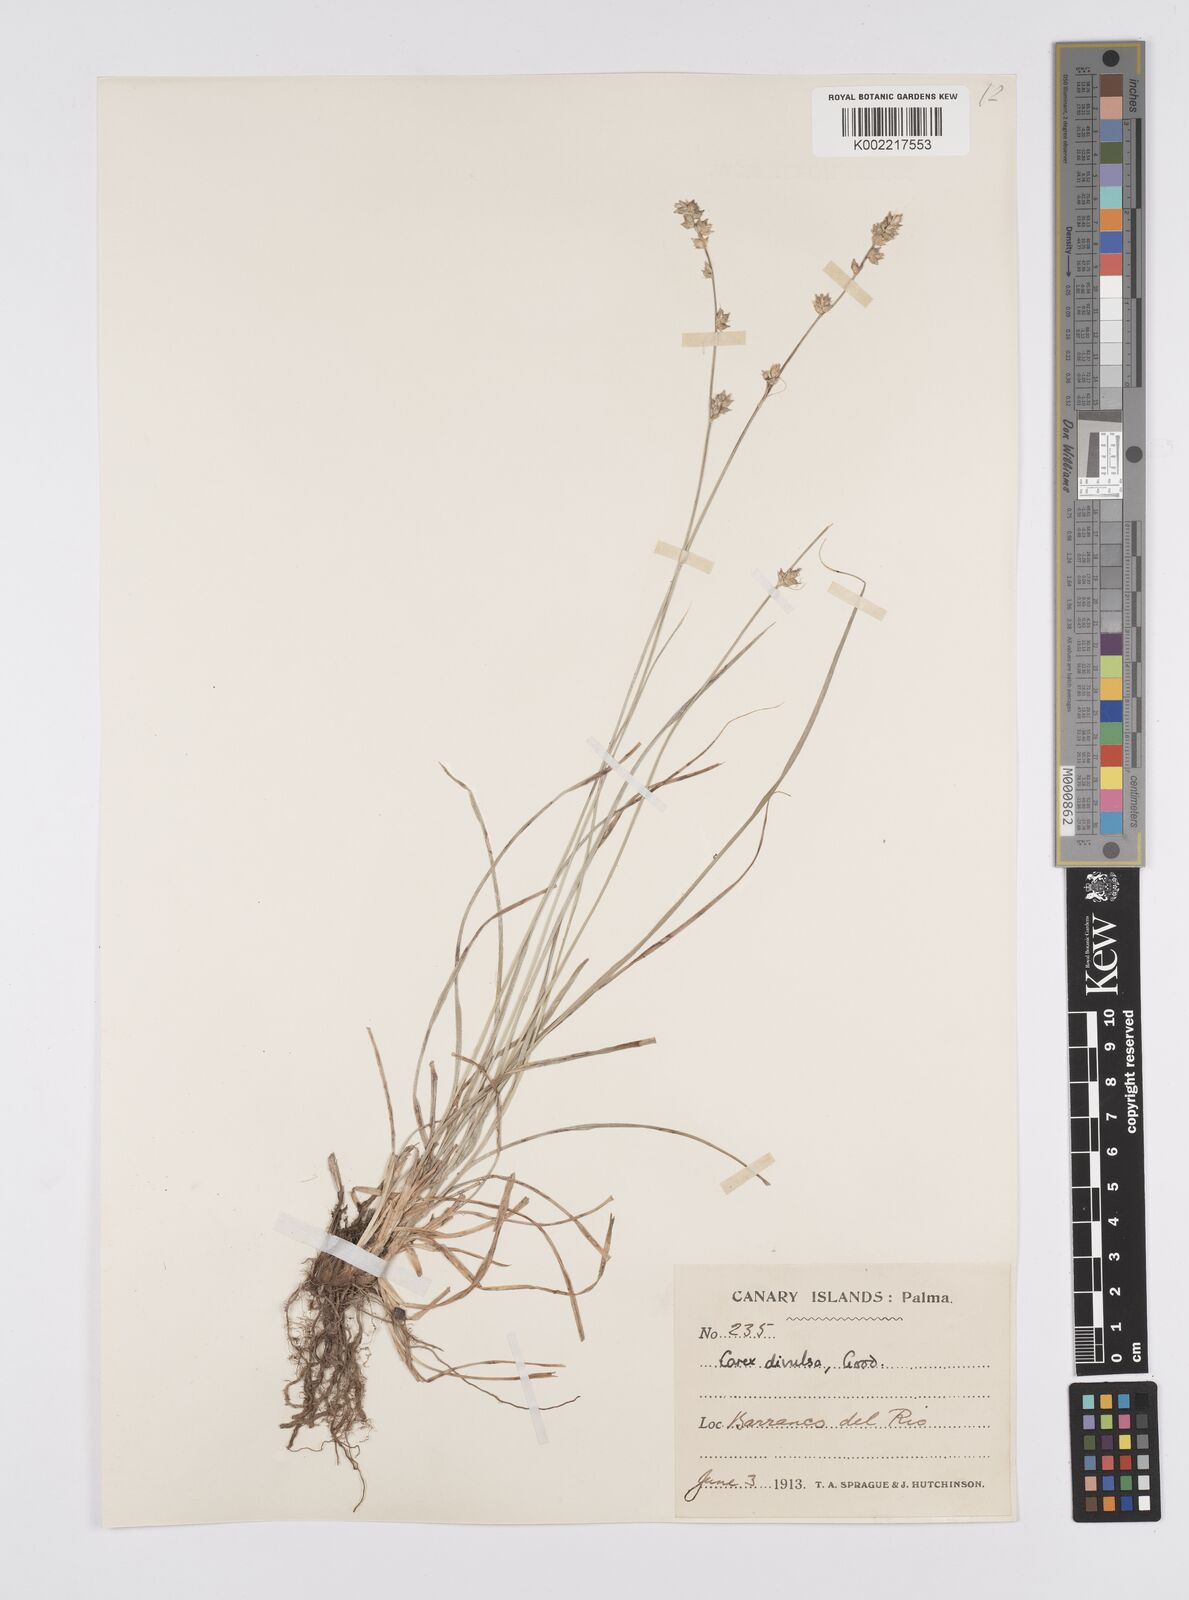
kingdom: Plantae
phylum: Tracheophyta
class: Liliopsida
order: Poales
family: Cyperaceae
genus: Carex
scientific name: Carex divulsa
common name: Grassland sedge
